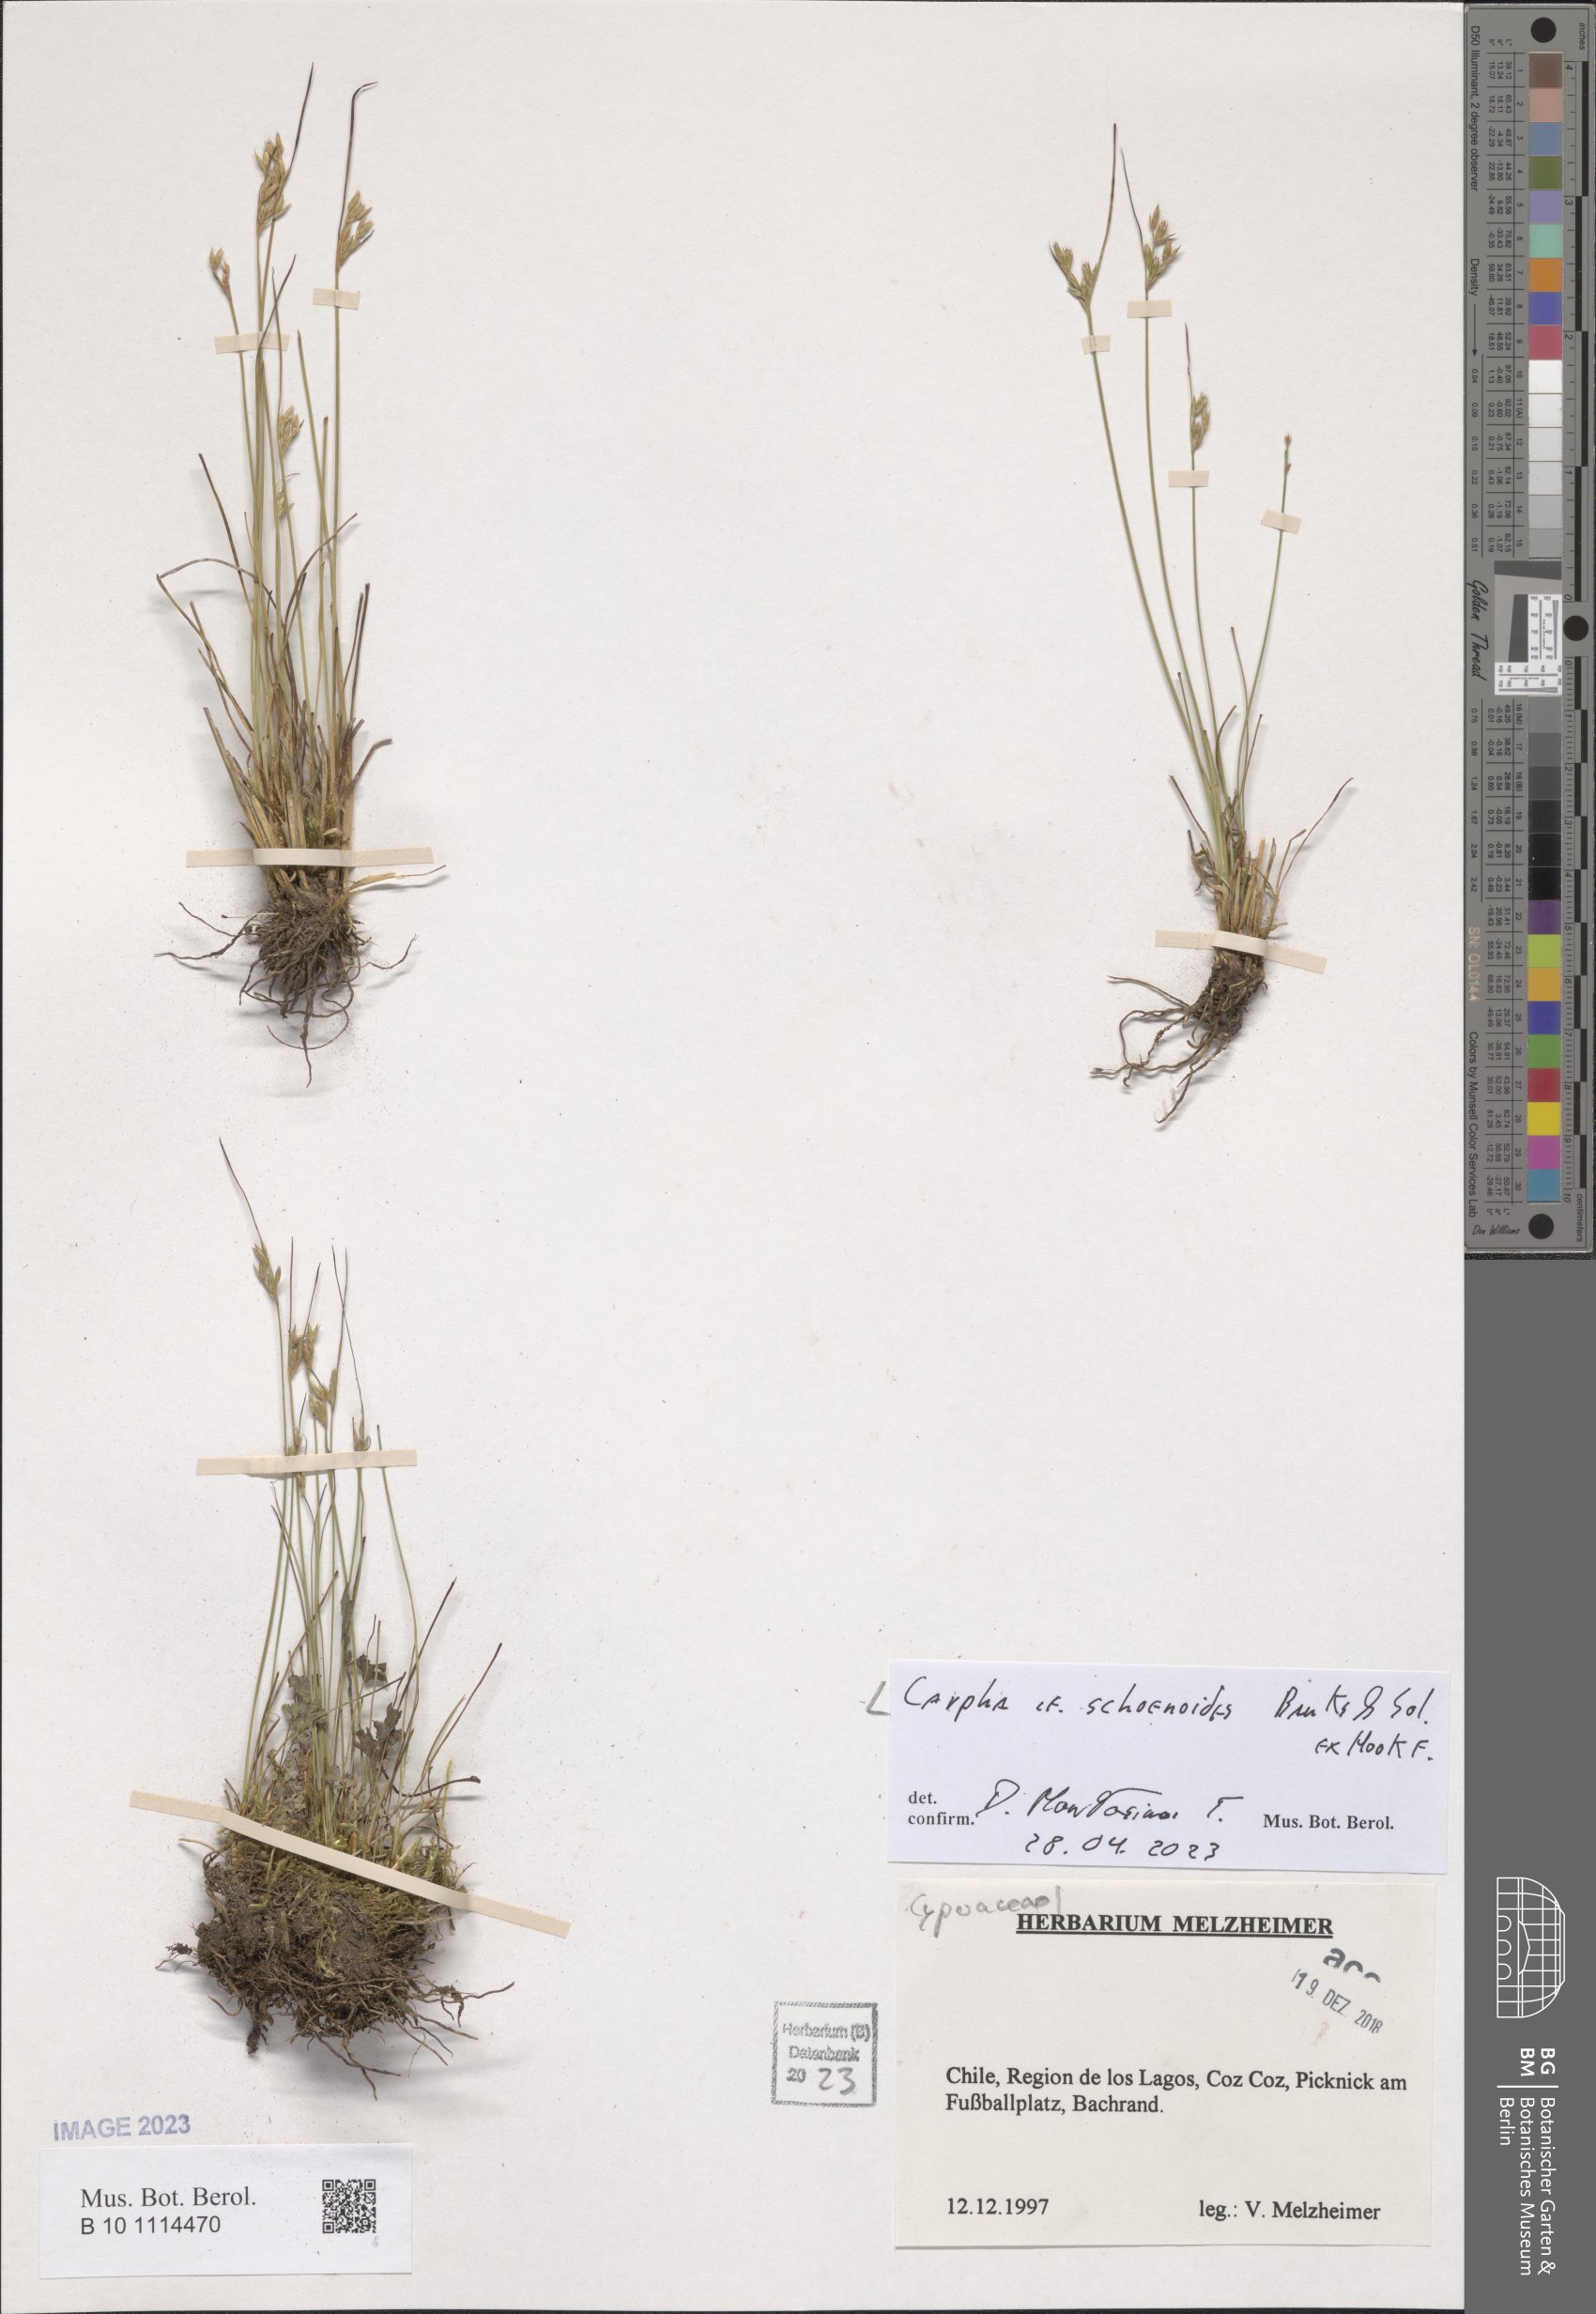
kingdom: Plantae
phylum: Tracheophyta
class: Liliopsida
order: Poales
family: Cyperaceae
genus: Carpha
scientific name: Carpha schoenoides
